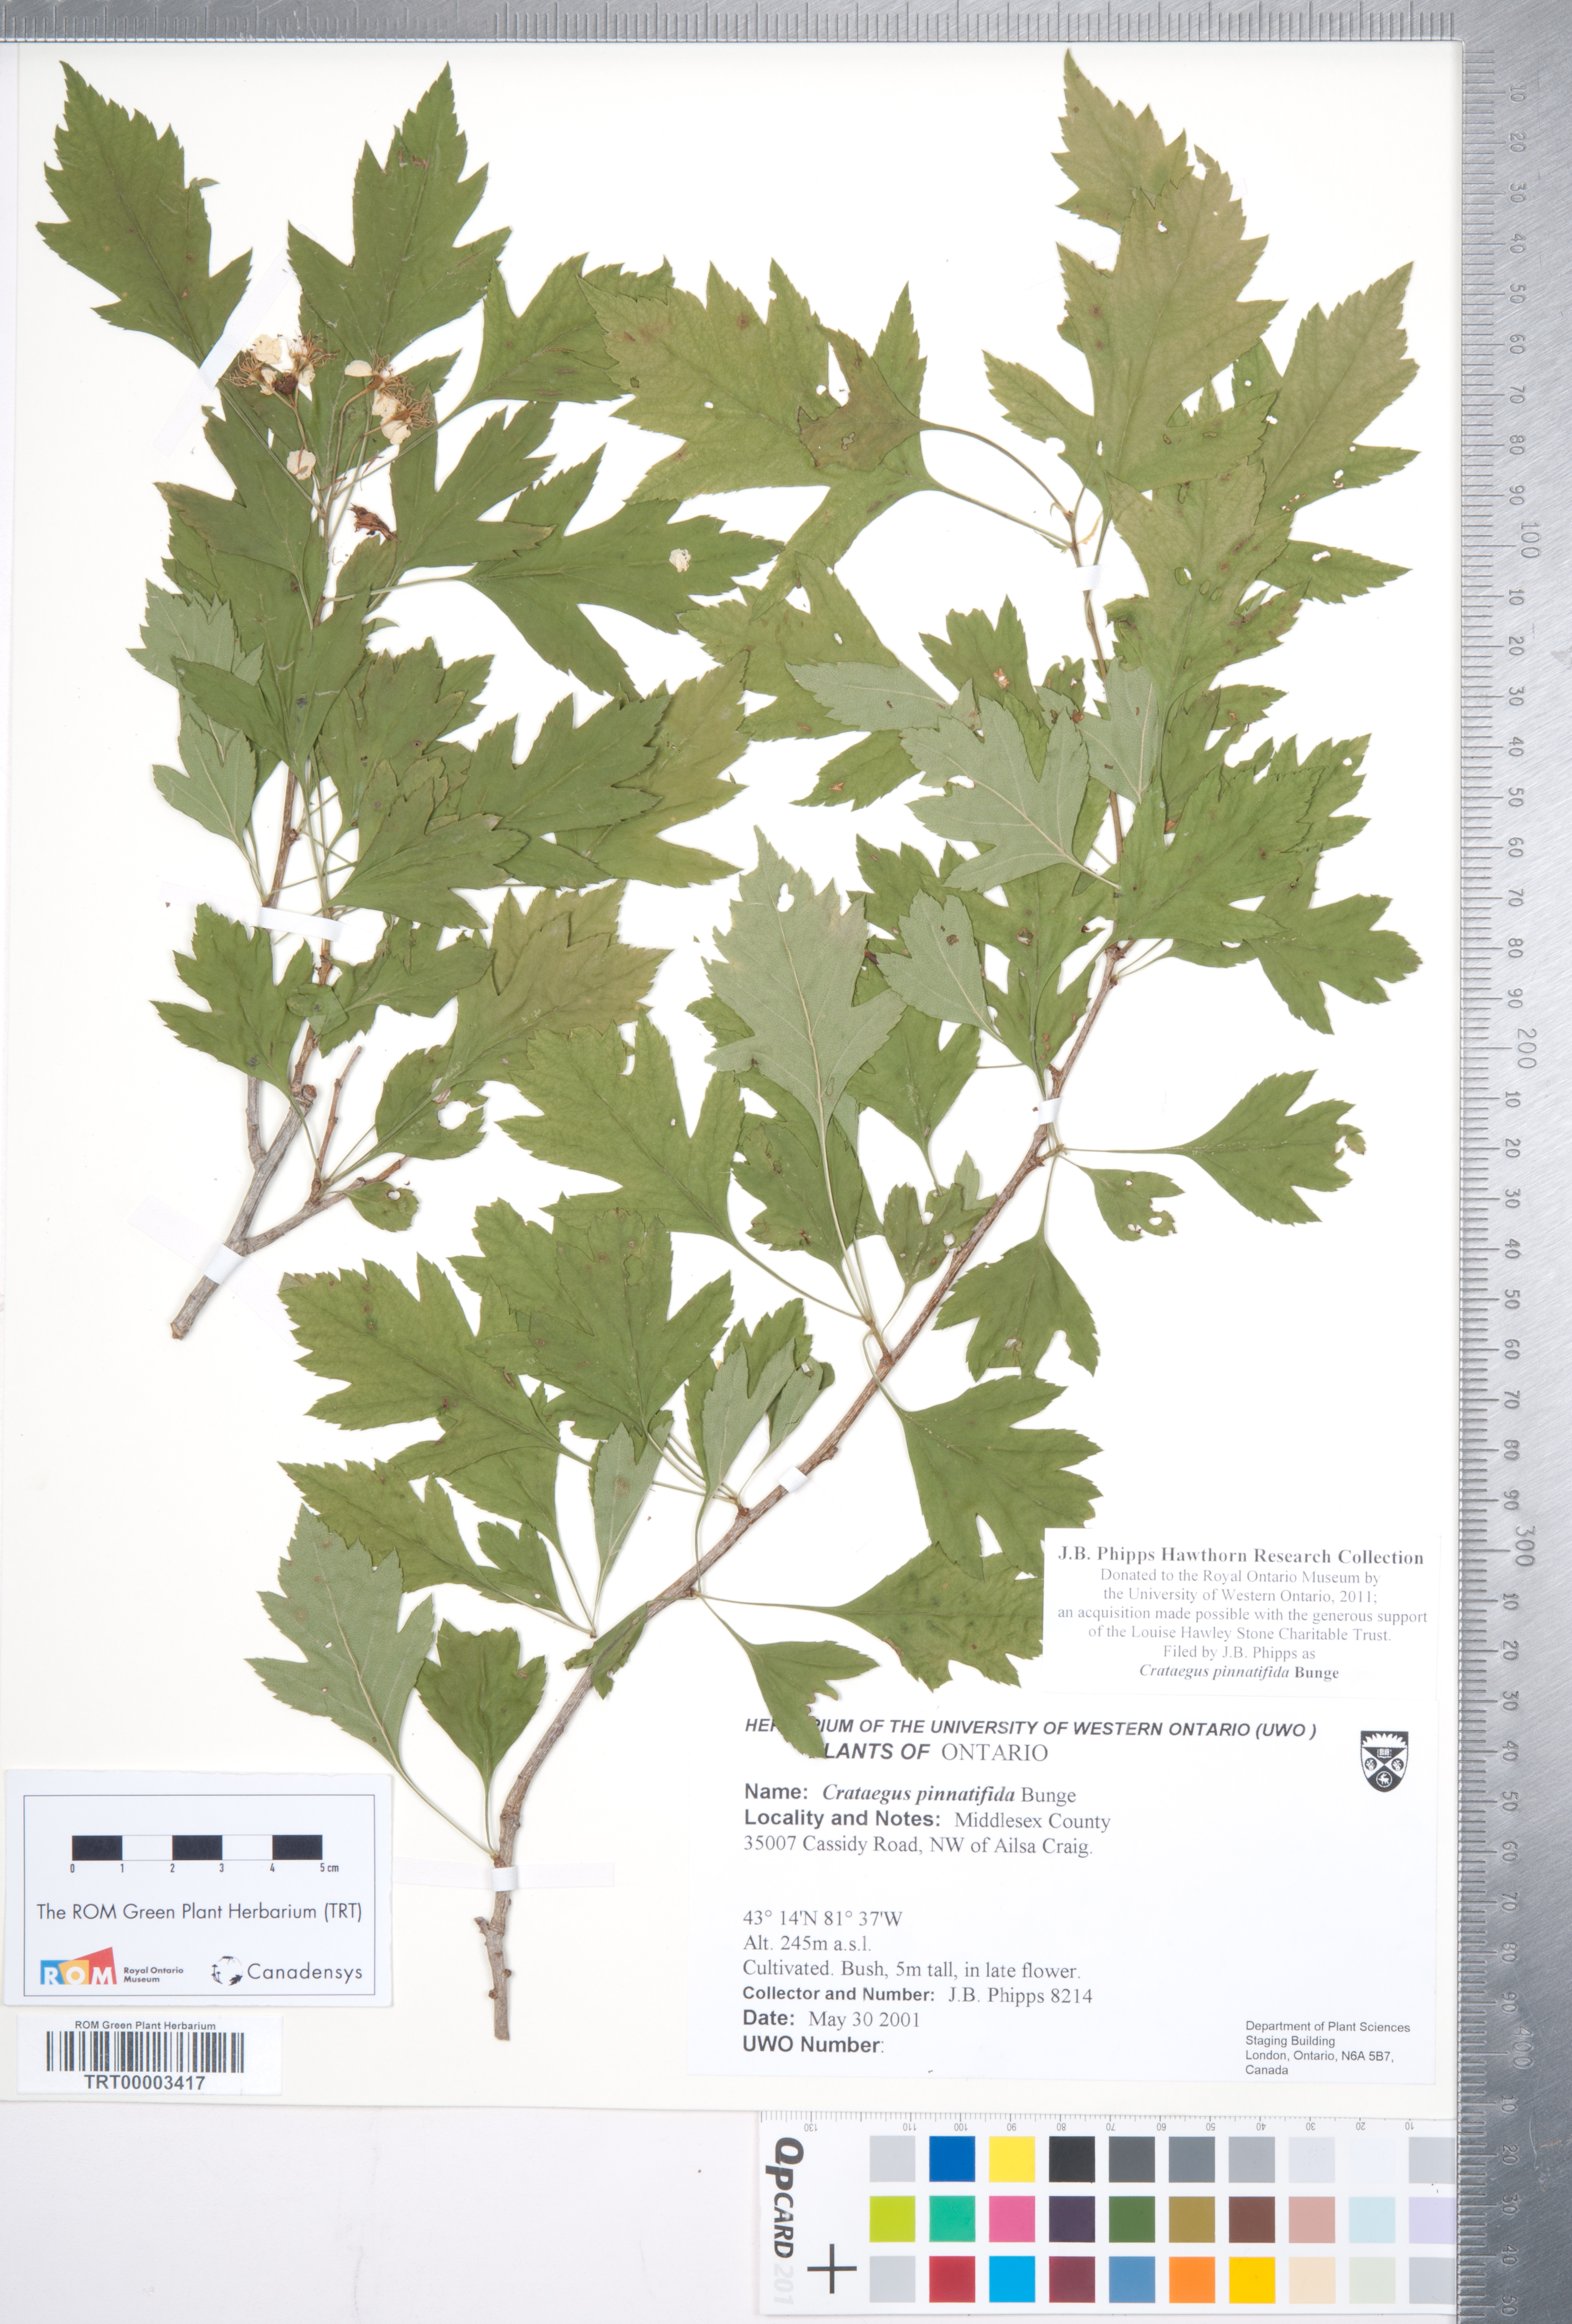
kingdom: Plantae
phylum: Tracheophyta
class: Magnoliopsida
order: Rosales
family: Rosaceae
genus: Crataegus
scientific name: Crataegus pinnatifida
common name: Chinese haw
